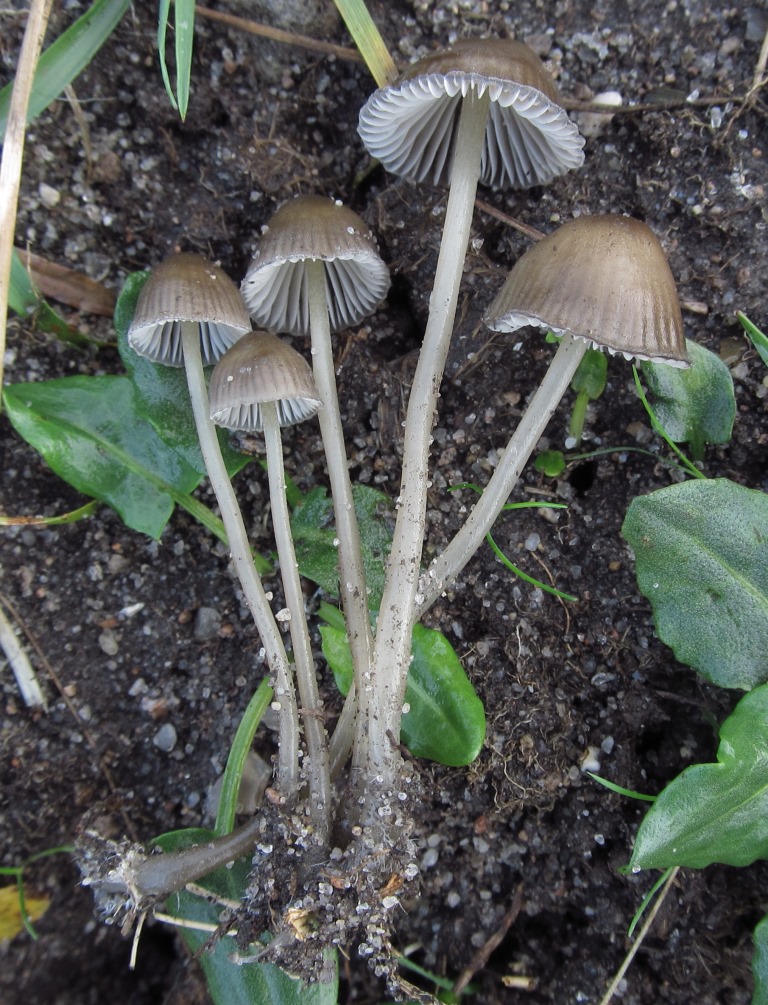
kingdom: Fungi
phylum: Basidiomycota
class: Agaricomycetes
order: Agaricales
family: Mycenaceae
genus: Mycena
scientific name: Mycena vulgaris
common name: klæbrig huesvamp
